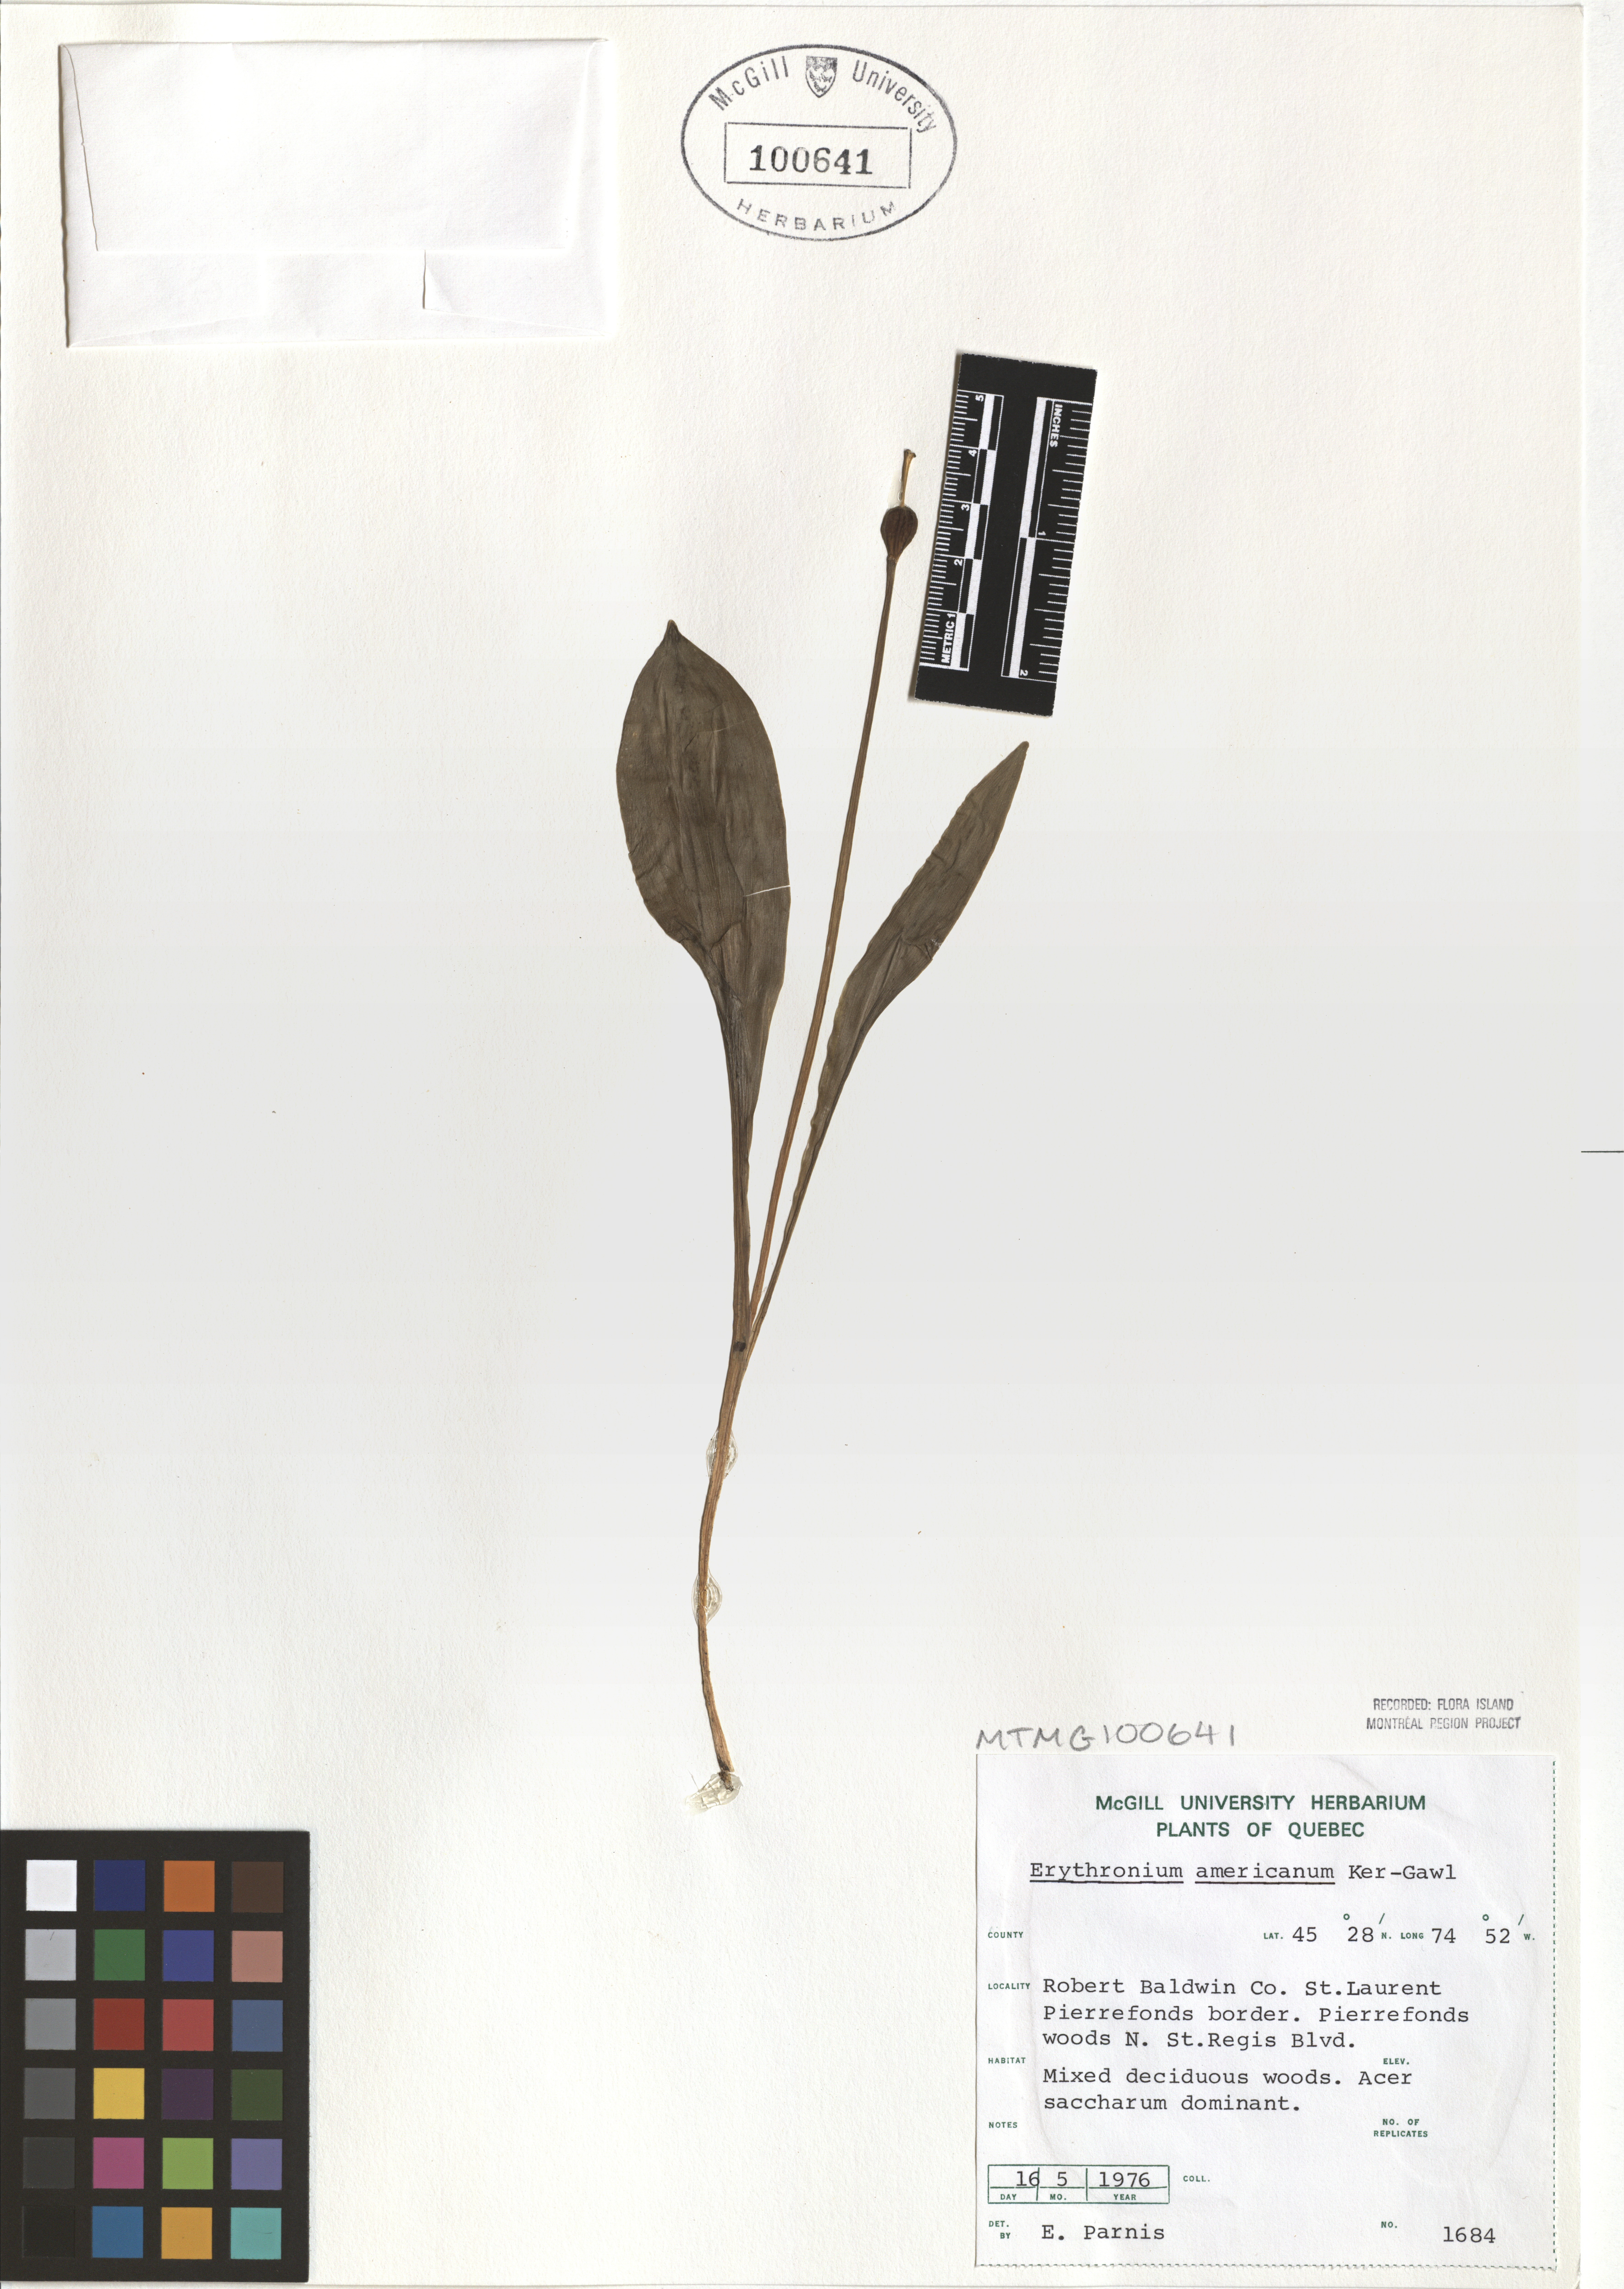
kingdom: Plantae
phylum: Tracheophyta
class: Liliopsida
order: Liliales
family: Liliaceae
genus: Erythronium
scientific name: Erythronium americanum
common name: Yellow adder's-tongue
